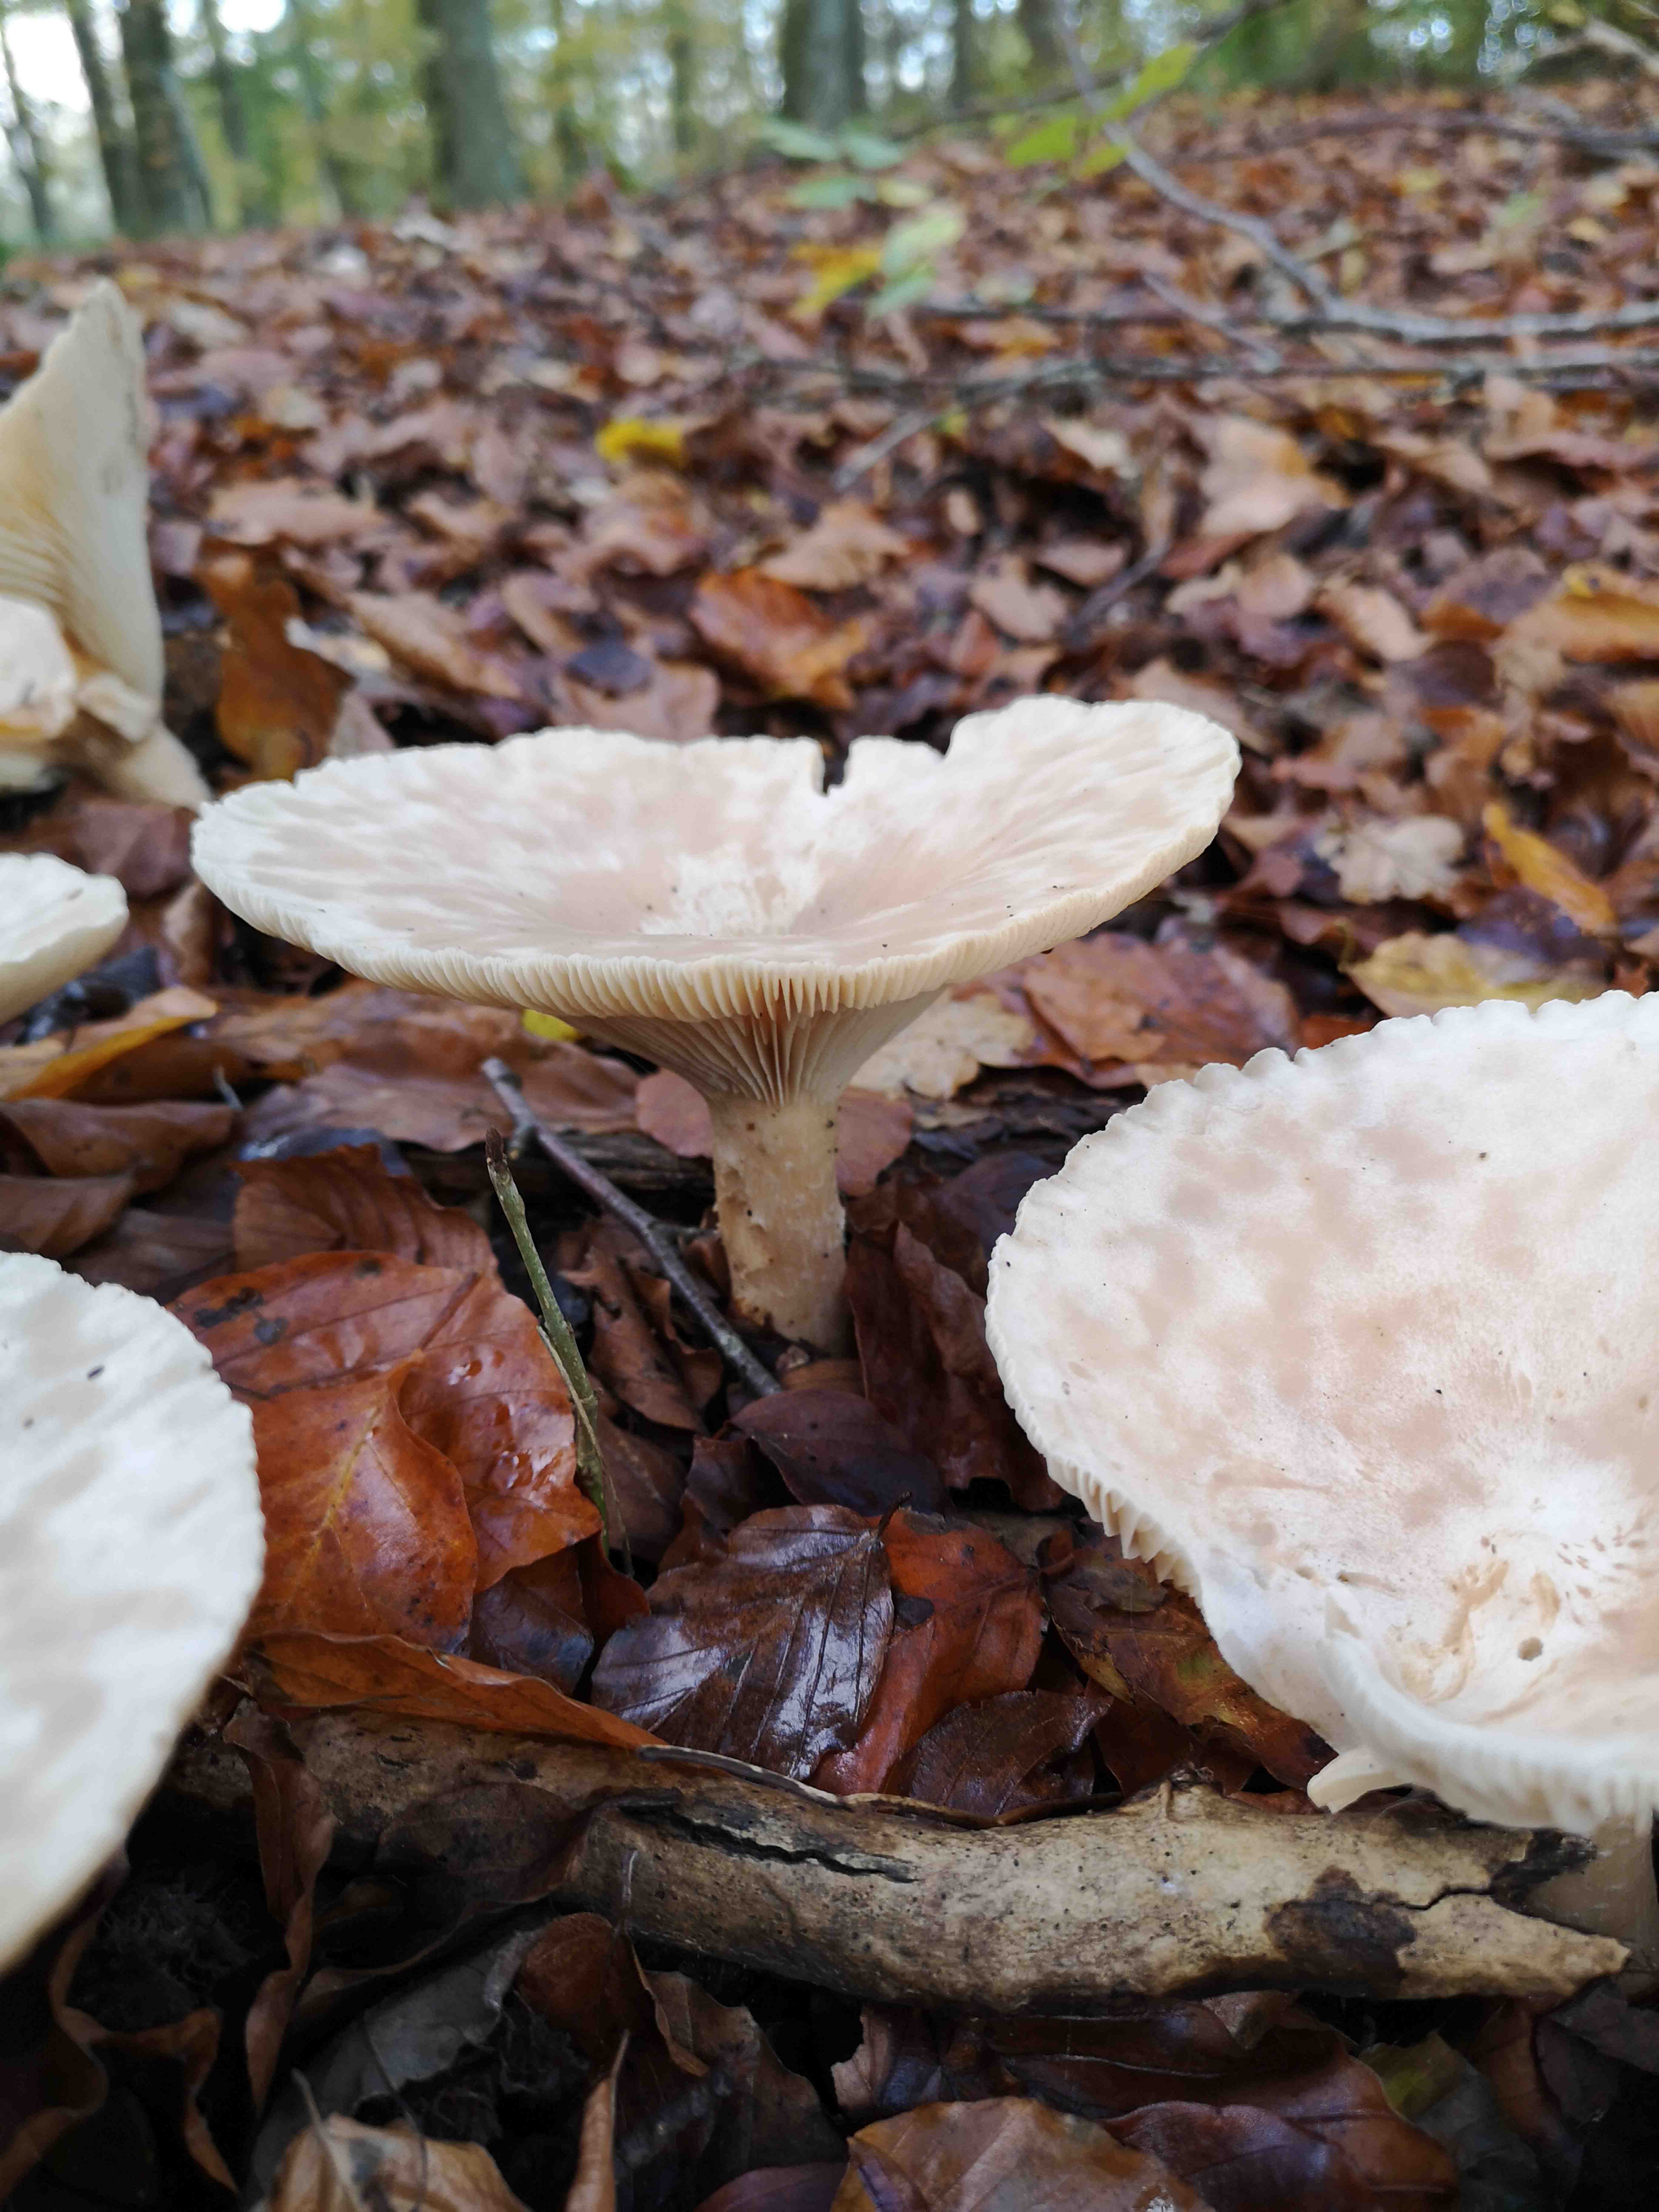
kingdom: Fungi
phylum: Basidiomycota
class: Agaricomycetes
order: Agaricales
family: Tricholomataceae
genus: Infundibulicybe
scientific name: Infundibulicybe geotropa
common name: stor tragthat
